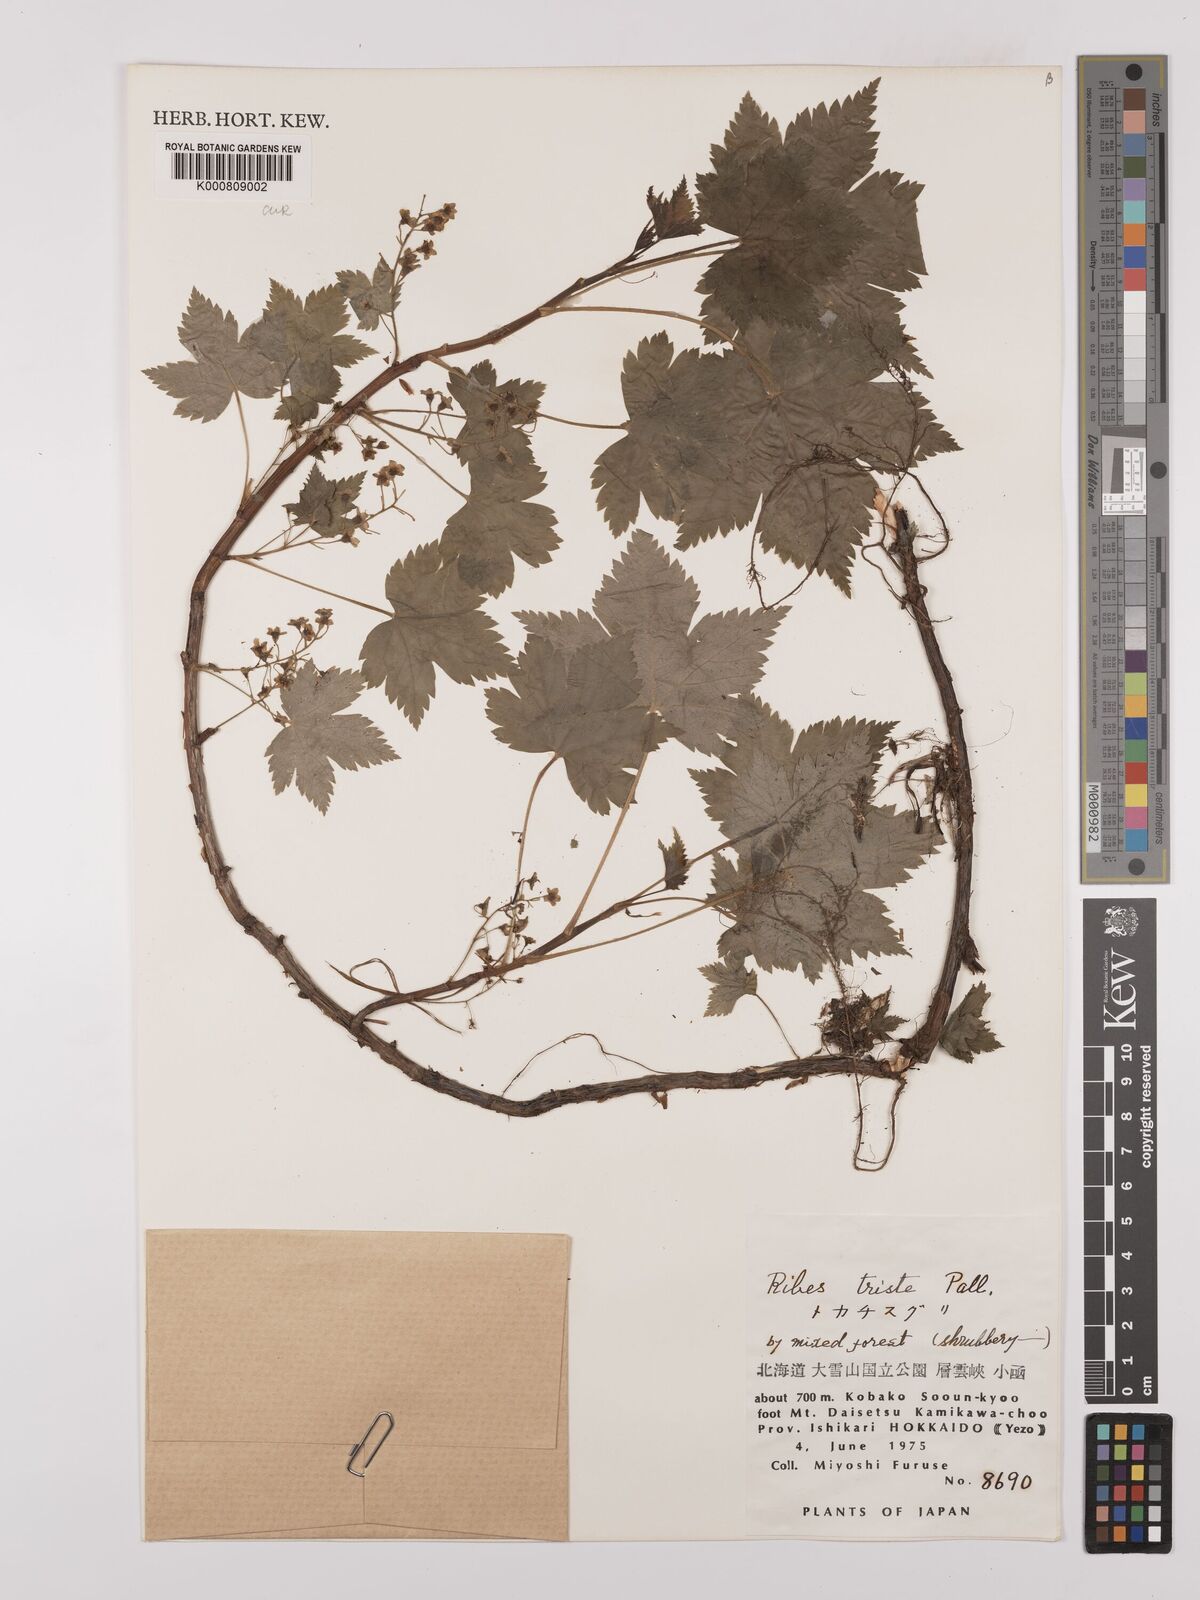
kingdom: Plantae
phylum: Tracheophyta
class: Magnoliopsida
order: Saxifragales
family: Grossulariaceae
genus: Ribes
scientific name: Ribes triste
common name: Swamp red currant
